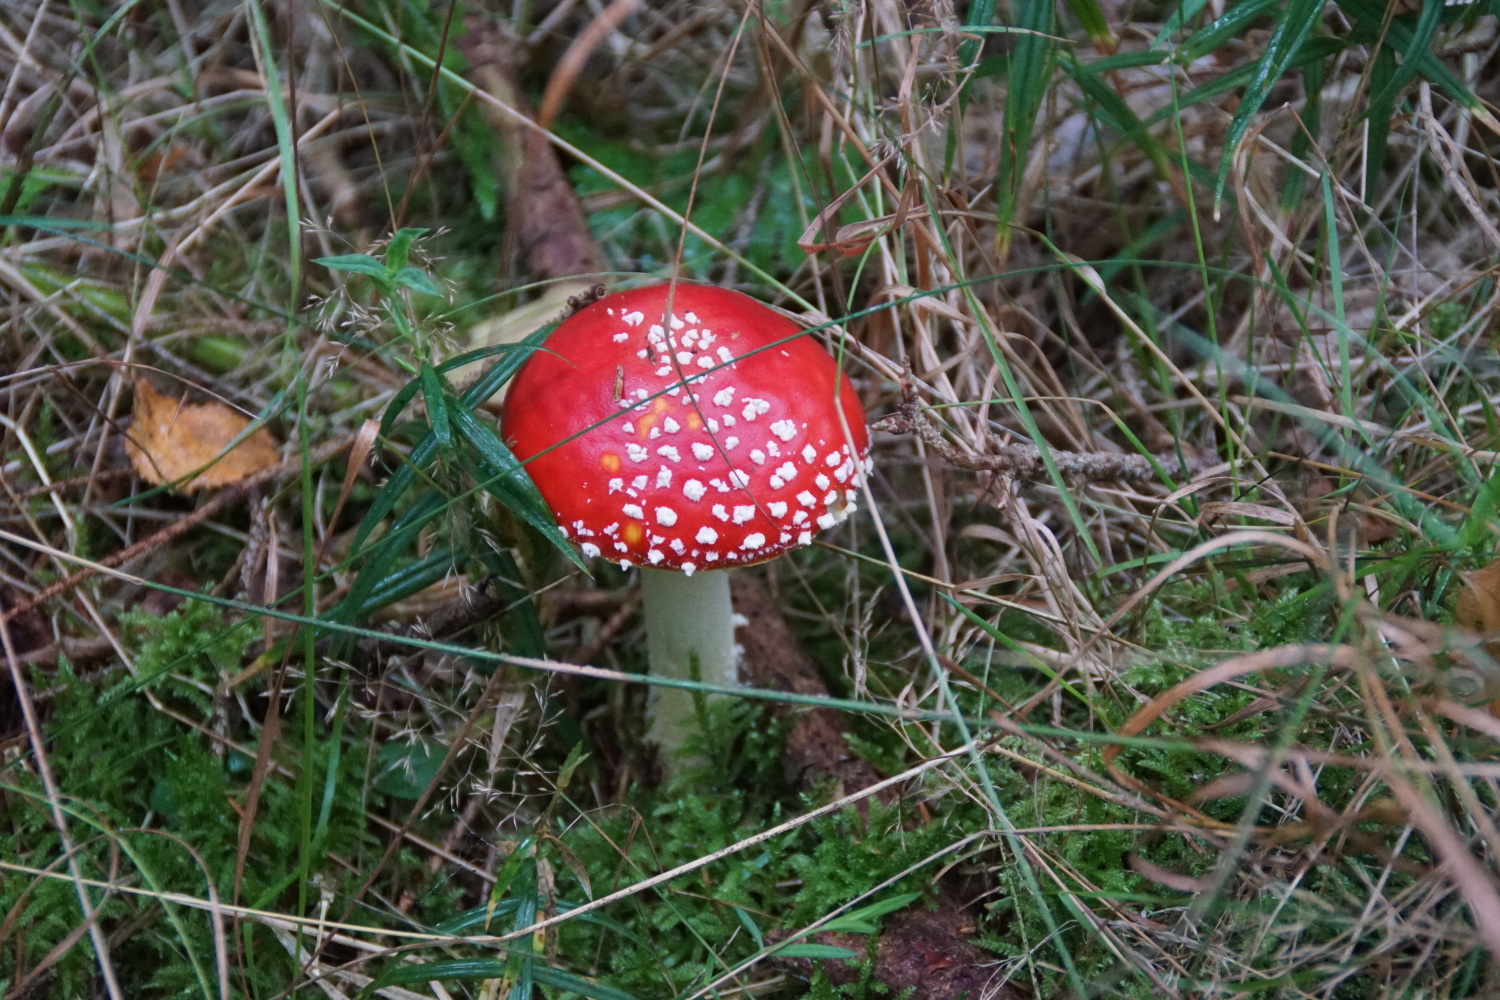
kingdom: Fungi
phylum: Basidiomycota
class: Agaricomycetes
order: Agaricales
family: Amanitaceae
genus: Amanita
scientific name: Amanita muscaria
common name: rød fluesvamp
